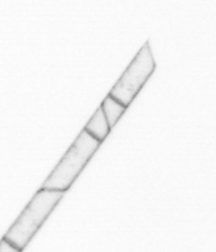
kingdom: Chromista
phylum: Ochrophyta
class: Bacillariophyceae
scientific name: Bacillariophyceae
